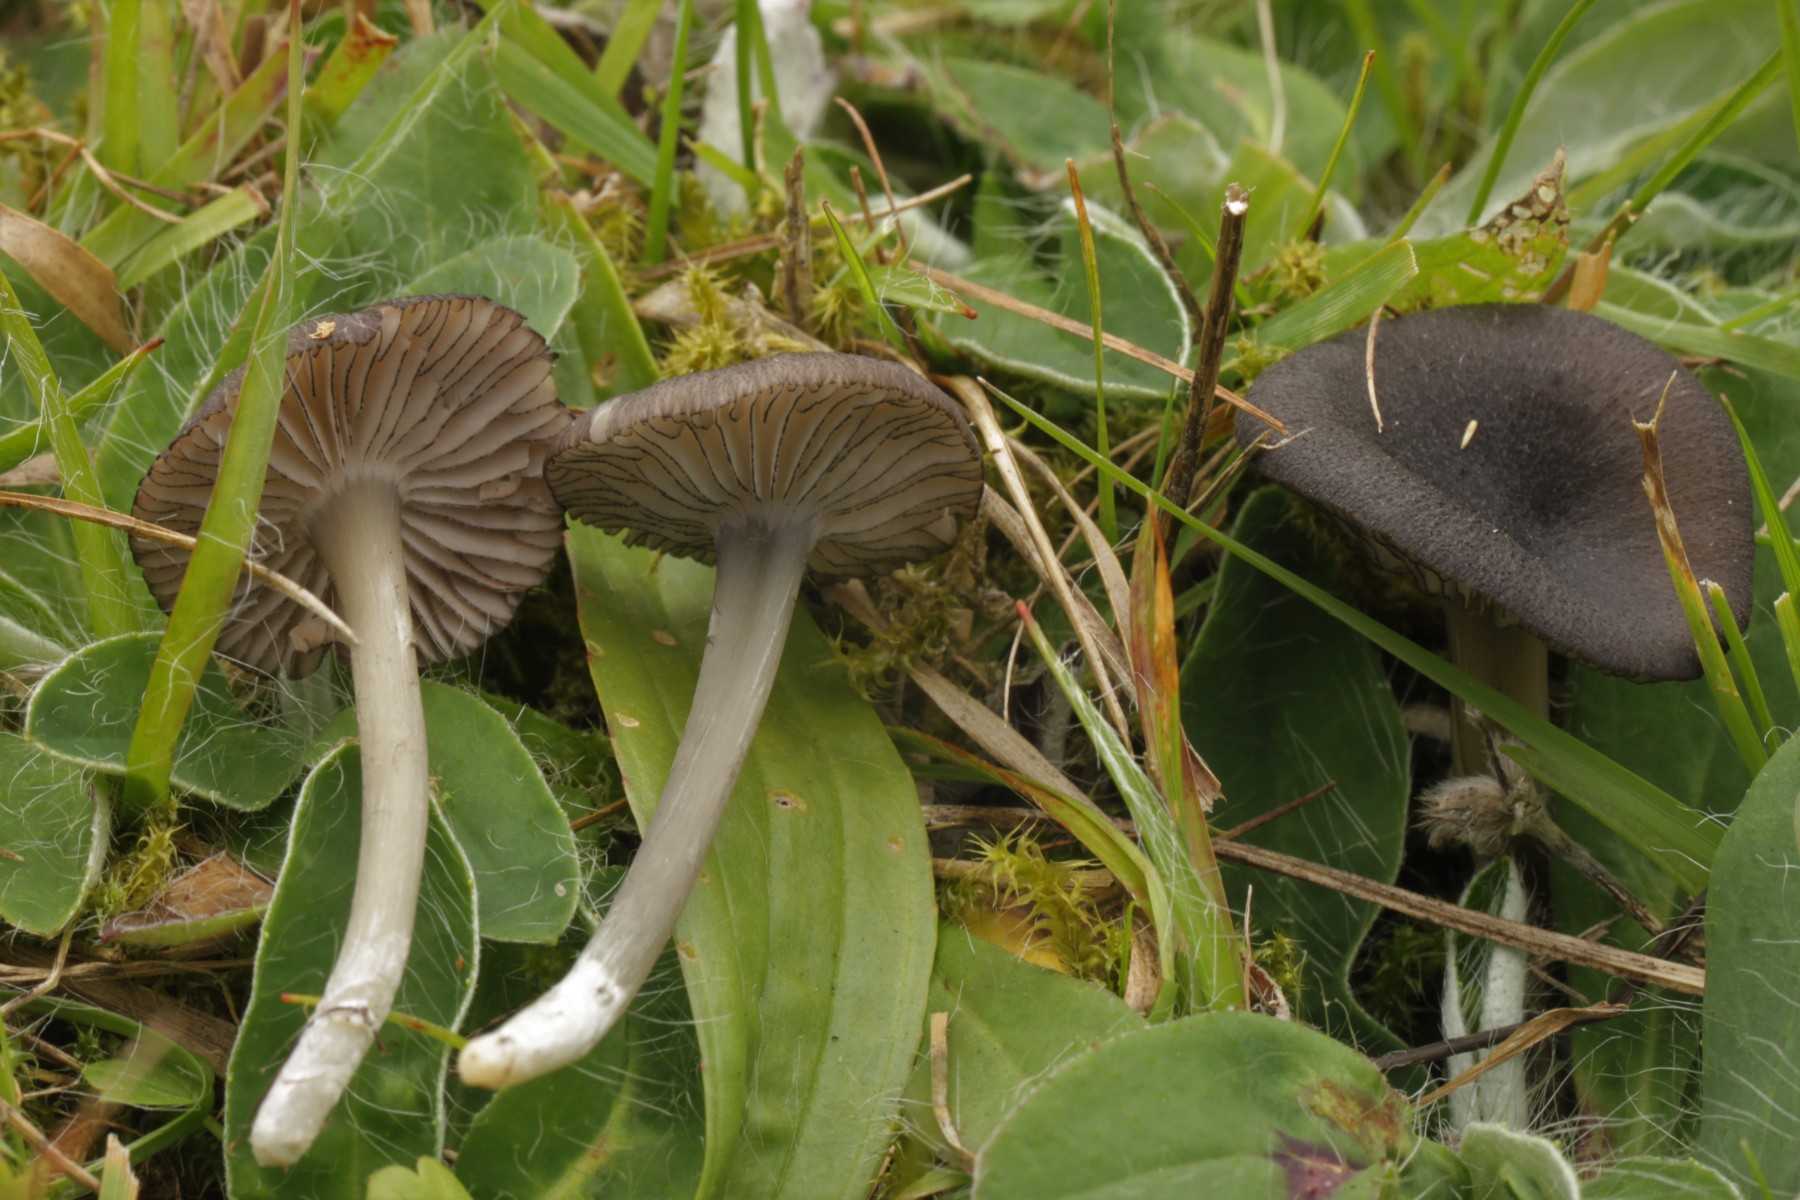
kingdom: Fungi
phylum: Basidiomycota
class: Agaricomycetes
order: Agaricales
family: Entolomataceae
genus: Entoloma
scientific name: Entoloma
